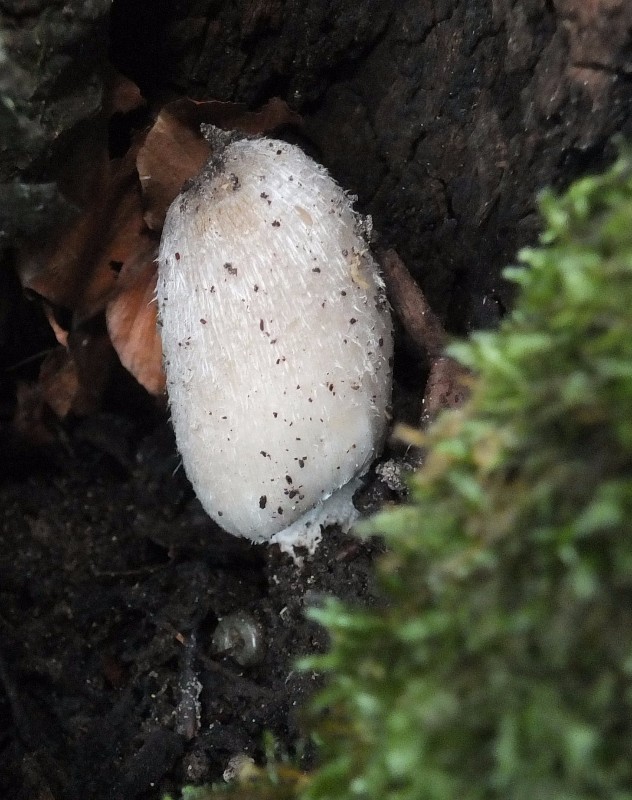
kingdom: Fungi
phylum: Basidiomycota
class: Agaricomycetes
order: Agaricales
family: Psathyrellaceae
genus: Coprinopsis
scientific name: Coprinopsis insignis
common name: stor blækhat
